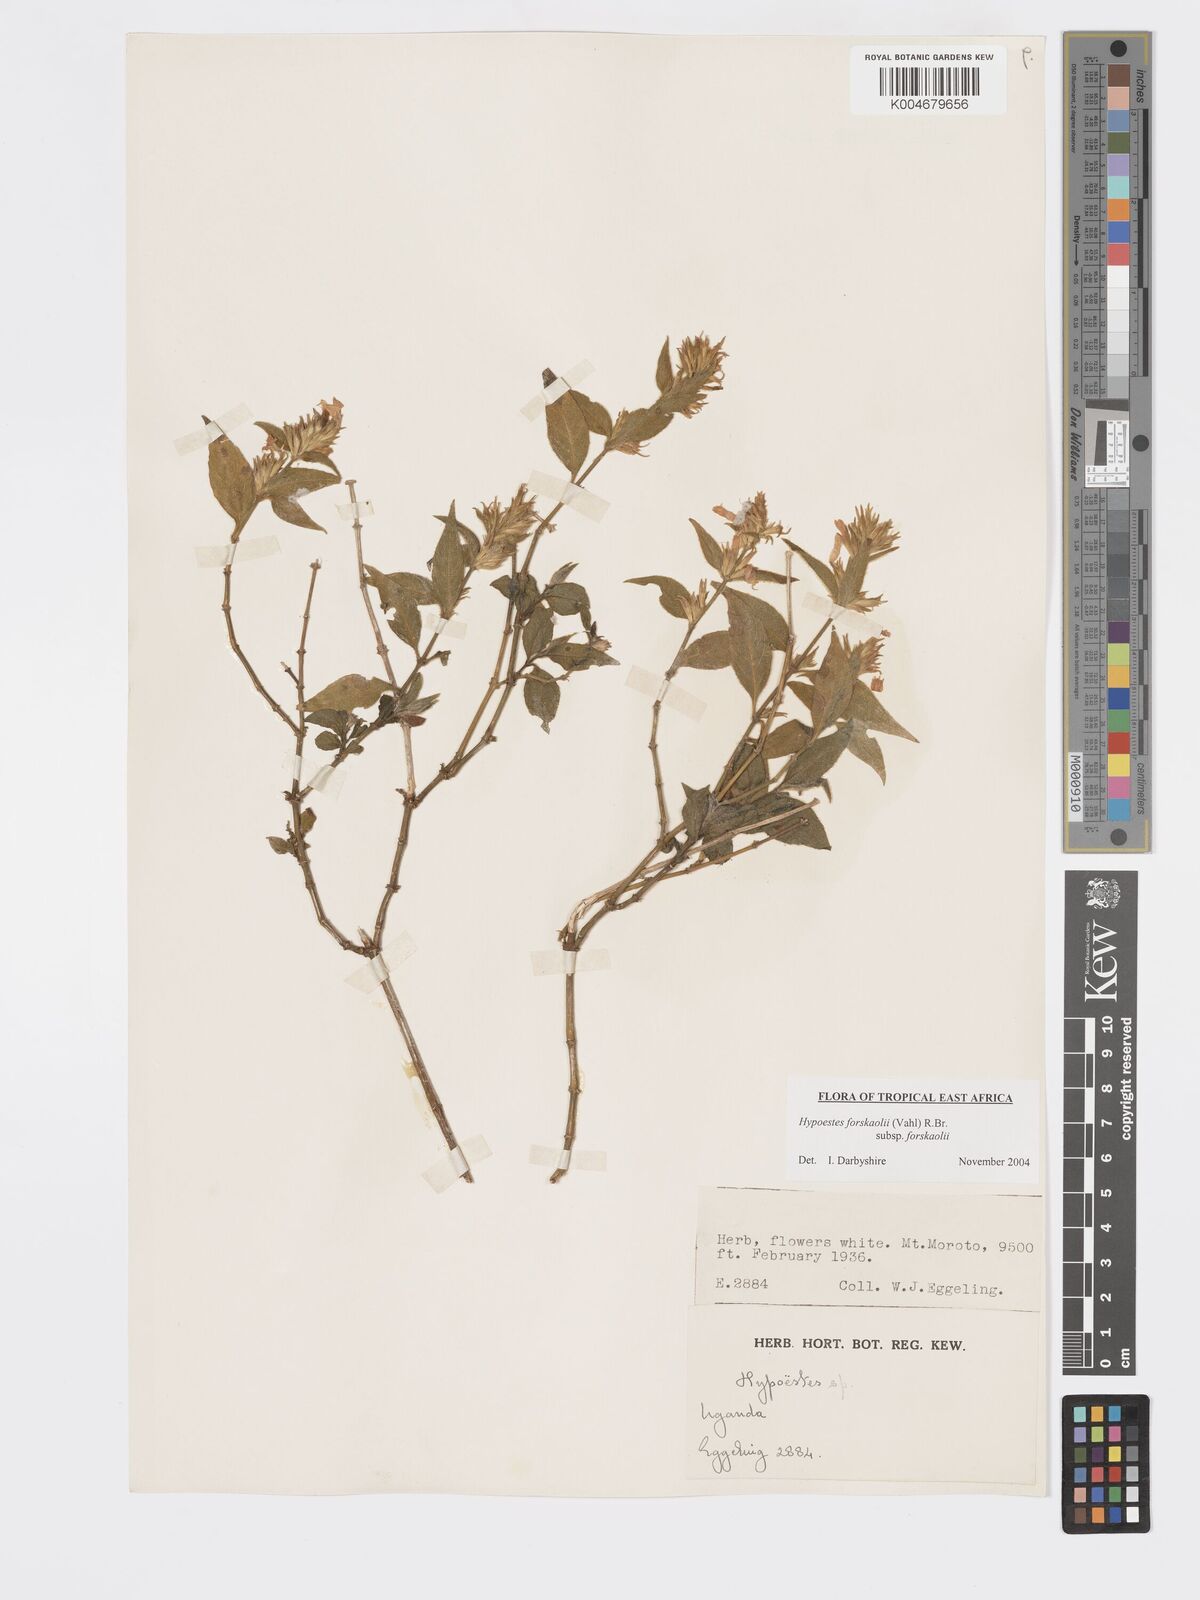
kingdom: Plantae
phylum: Tracheophyta
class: Magnoliopsida
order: Lamiales
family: Acanthaceae
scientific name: Acanthaceae
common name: Acanthaceae
